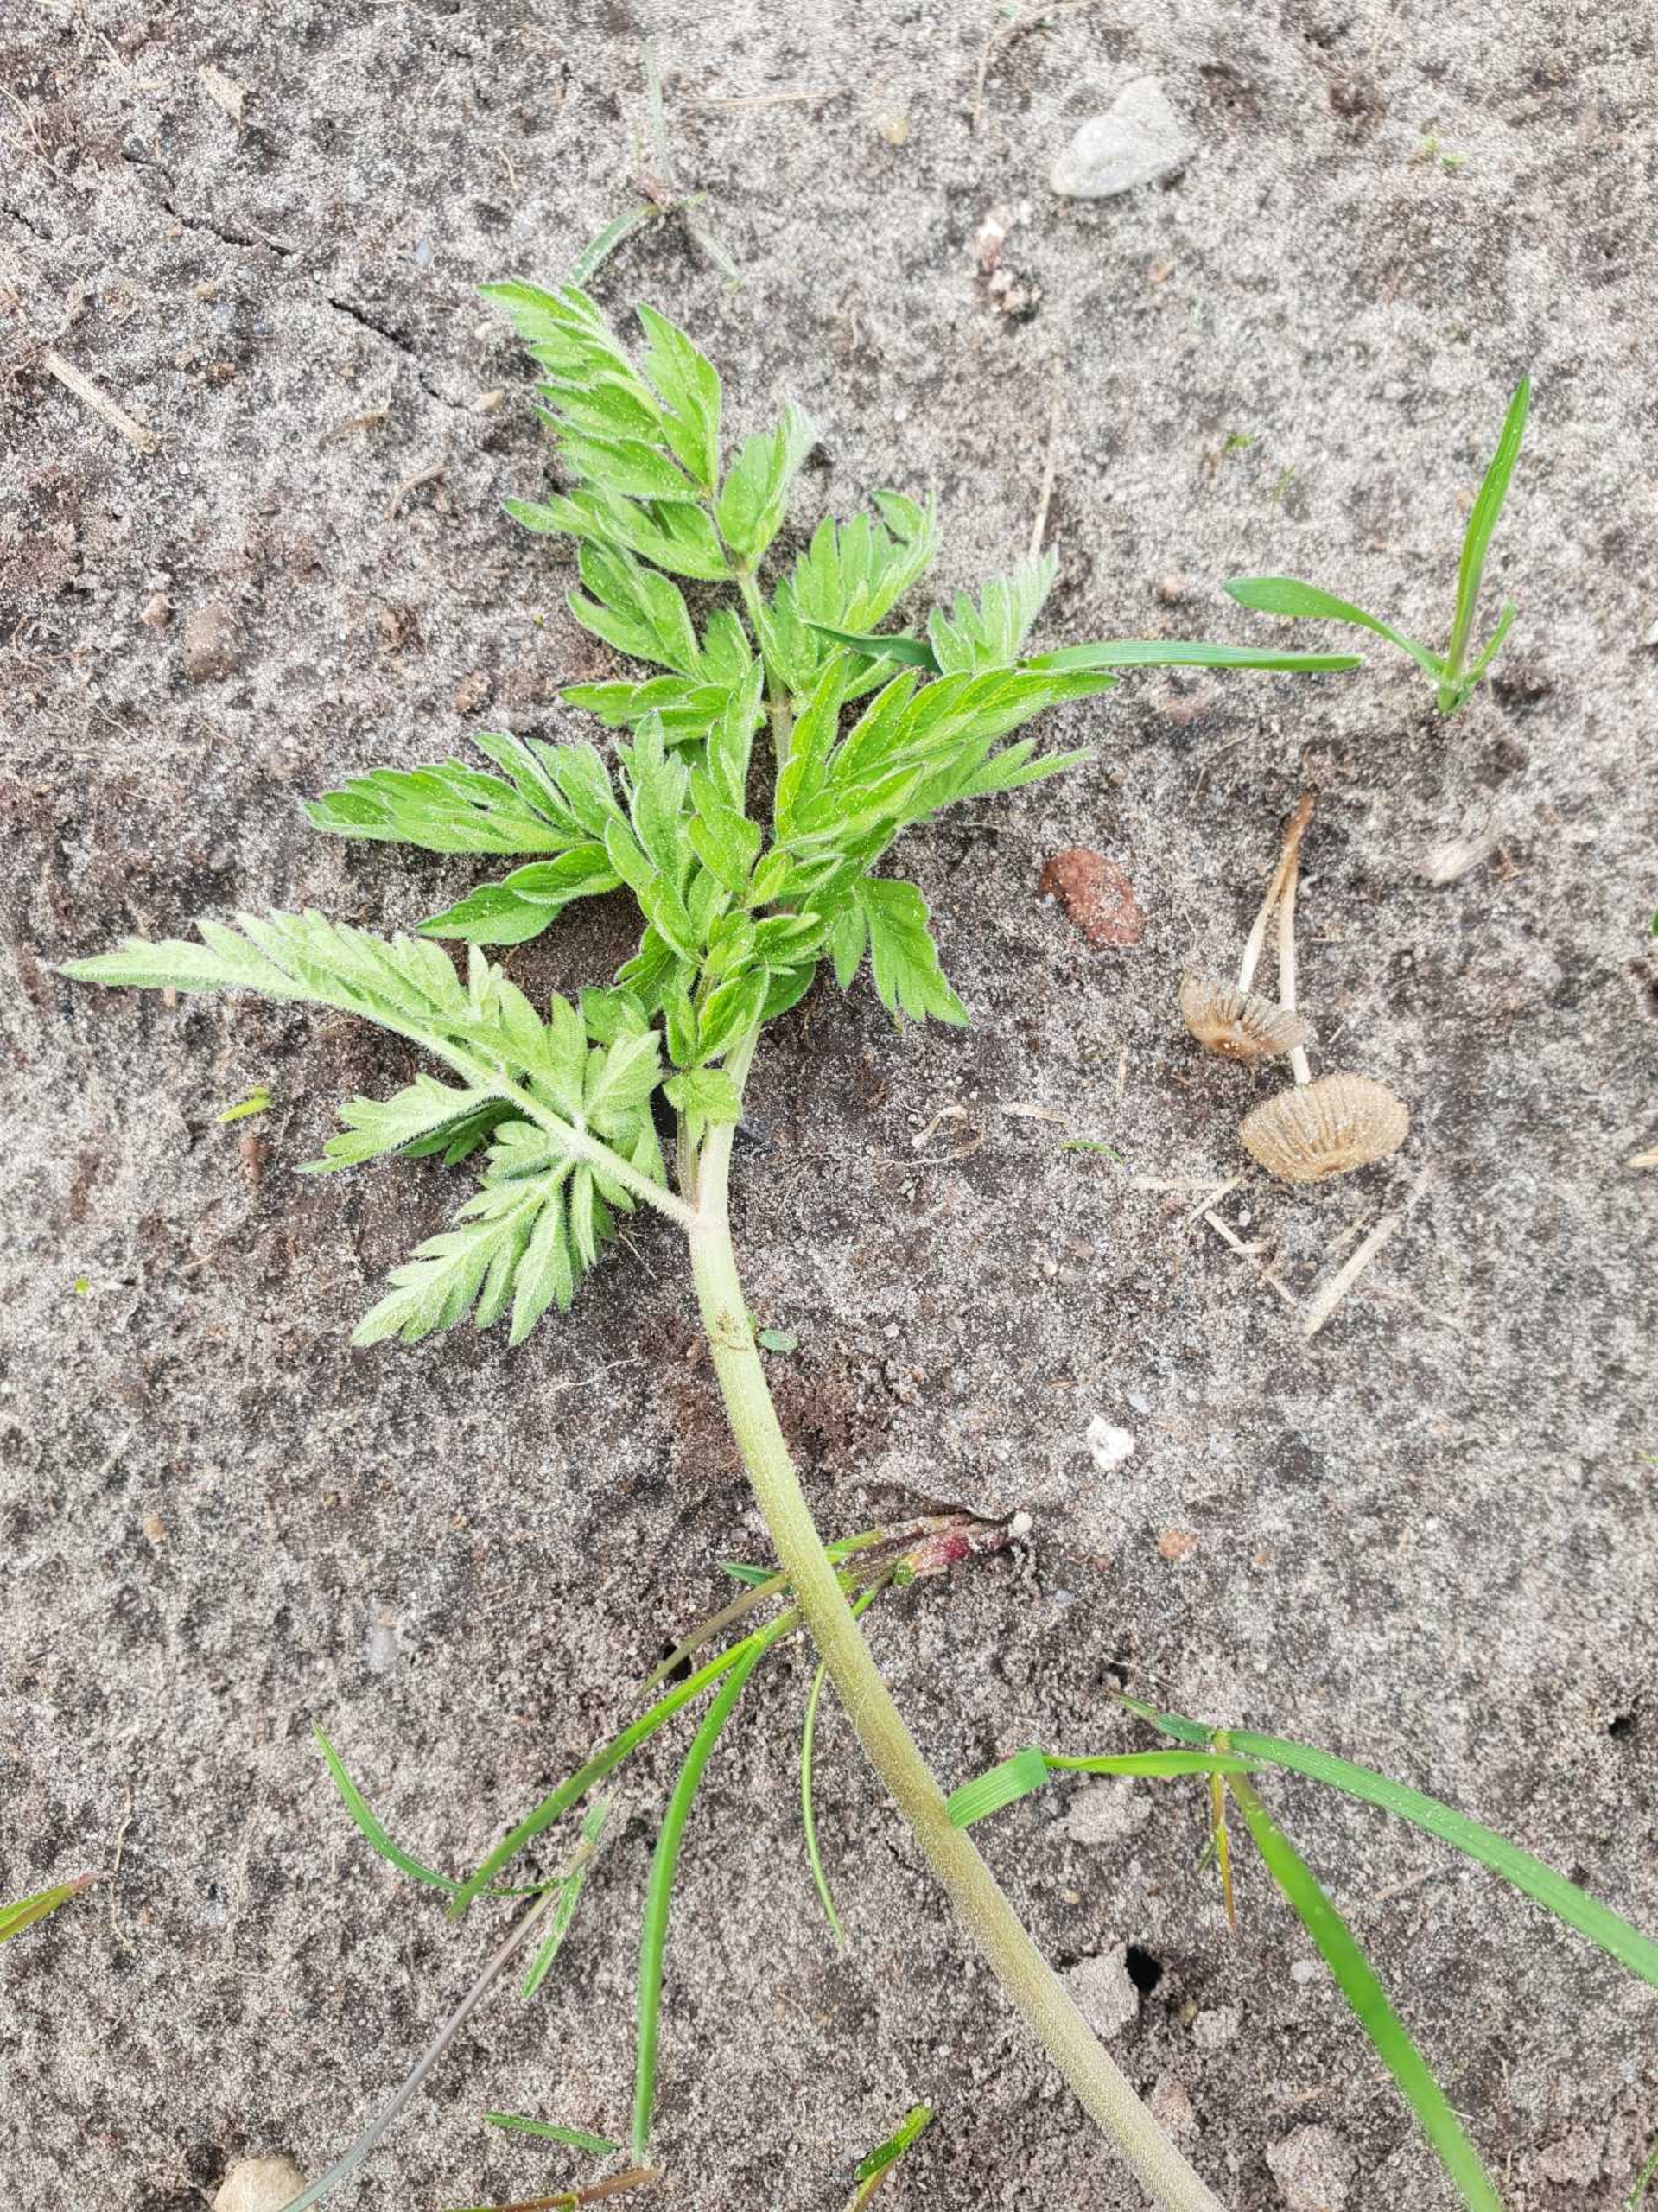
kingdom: Plantae
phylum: Tracheophyta
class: Magnoliopsida
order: Apiales
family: Apiaceae
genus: Anthriscus
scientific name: Anthriscus sylvestris
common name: Vild kørvel
